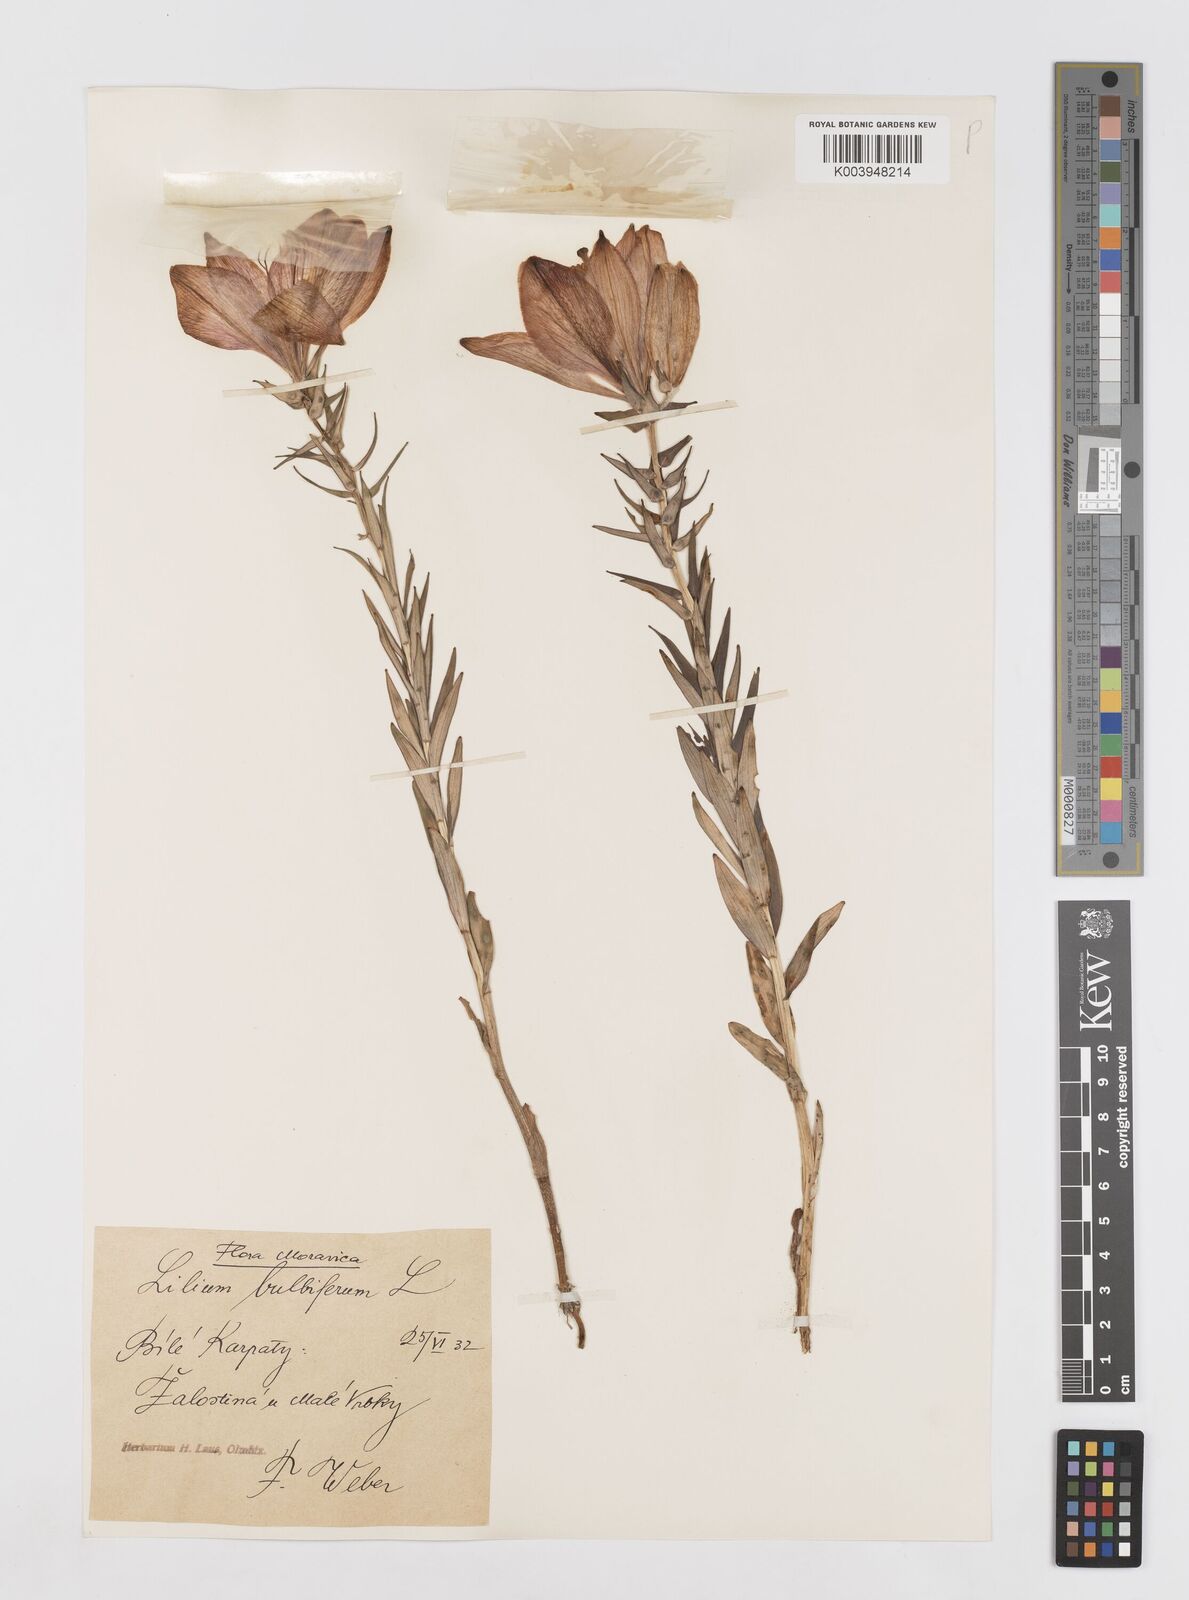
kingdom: Plantae
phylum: Tracheophyta
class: Liliopsida
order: Liliales
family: Liliaceae
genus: Lilium
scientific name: Lilium bulbiferum
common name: Orange lily
